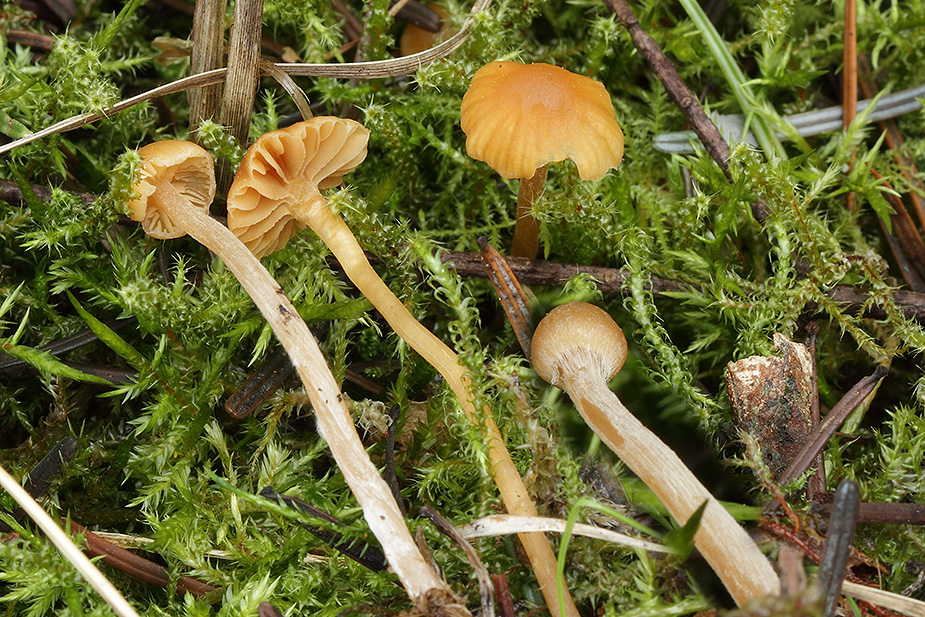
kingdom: Fungi
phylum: Basidiomycota
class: Agaricomycetes
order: Agaricales
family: Hymenogastraceae
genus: Galerina
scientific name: Galerina clavata
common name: kær-hjelmhat
